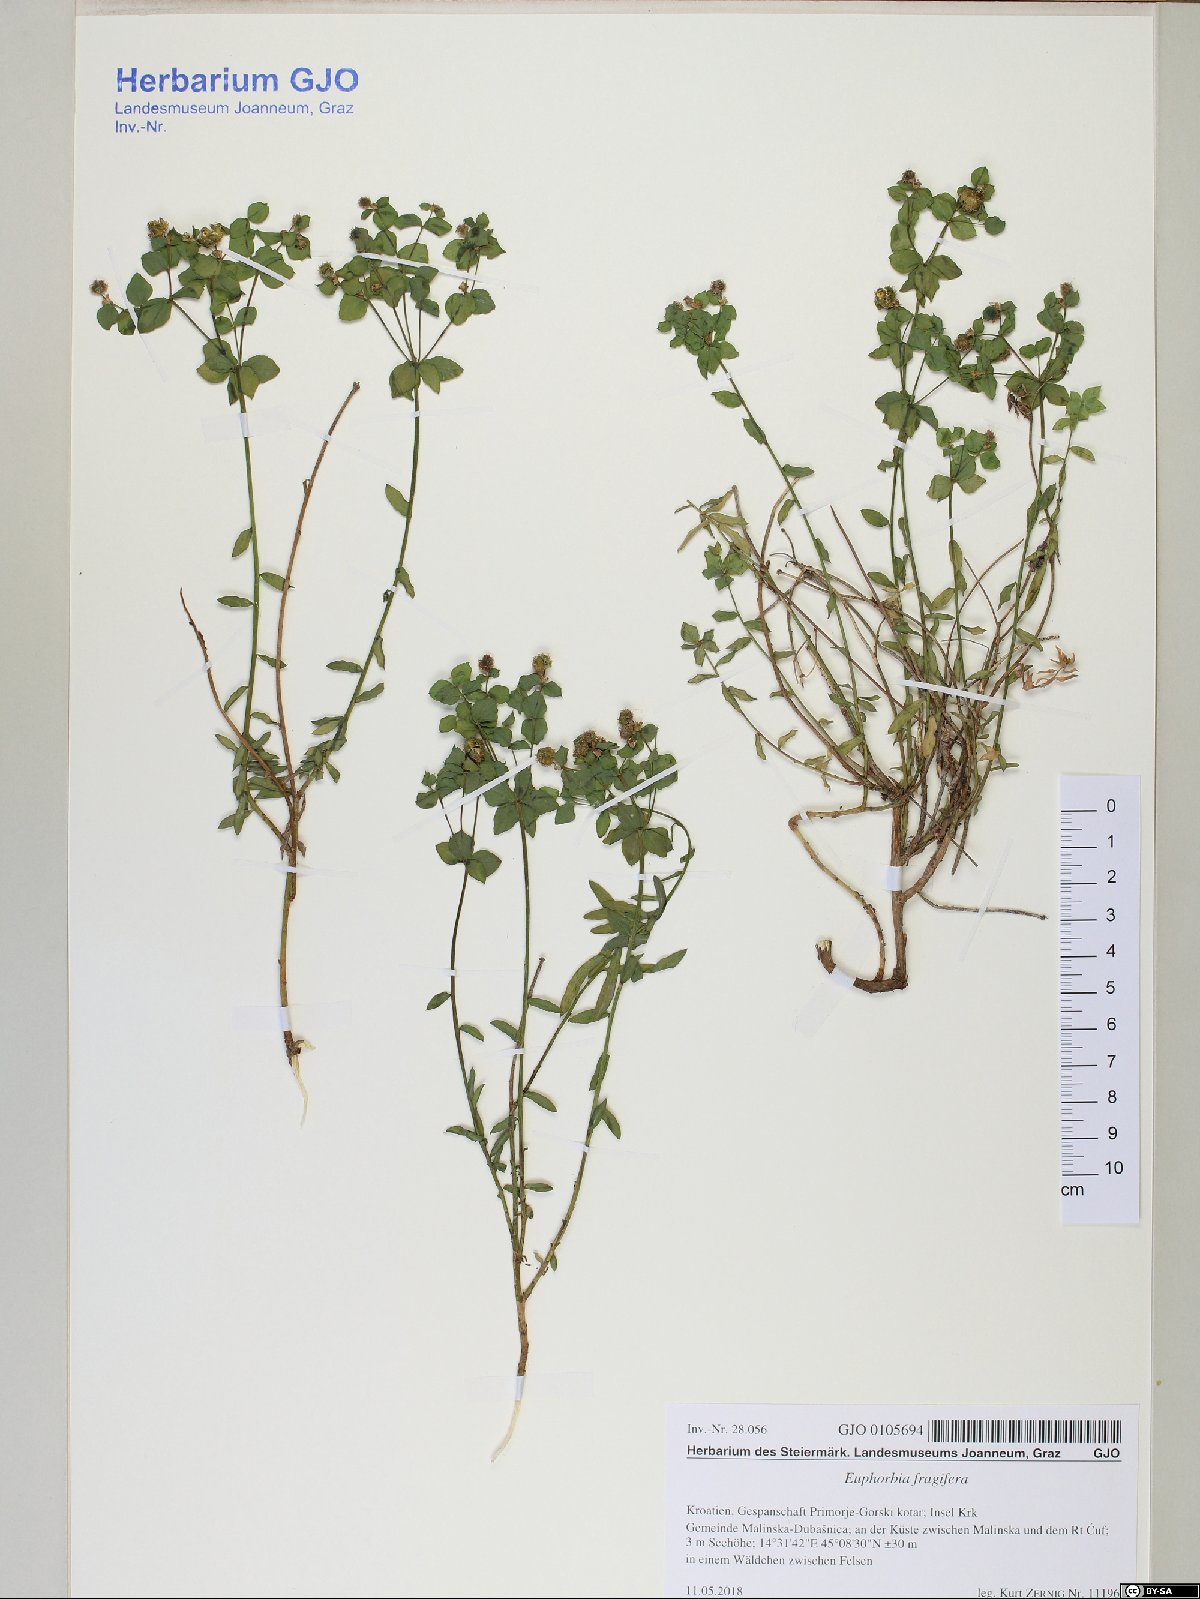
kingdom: Plantae
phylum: Tracheophyta
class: Magnoliopsida
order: Malpighiales
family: Euphorbiaceae
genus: Euphorbia
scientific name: Euphorbia fragifera
